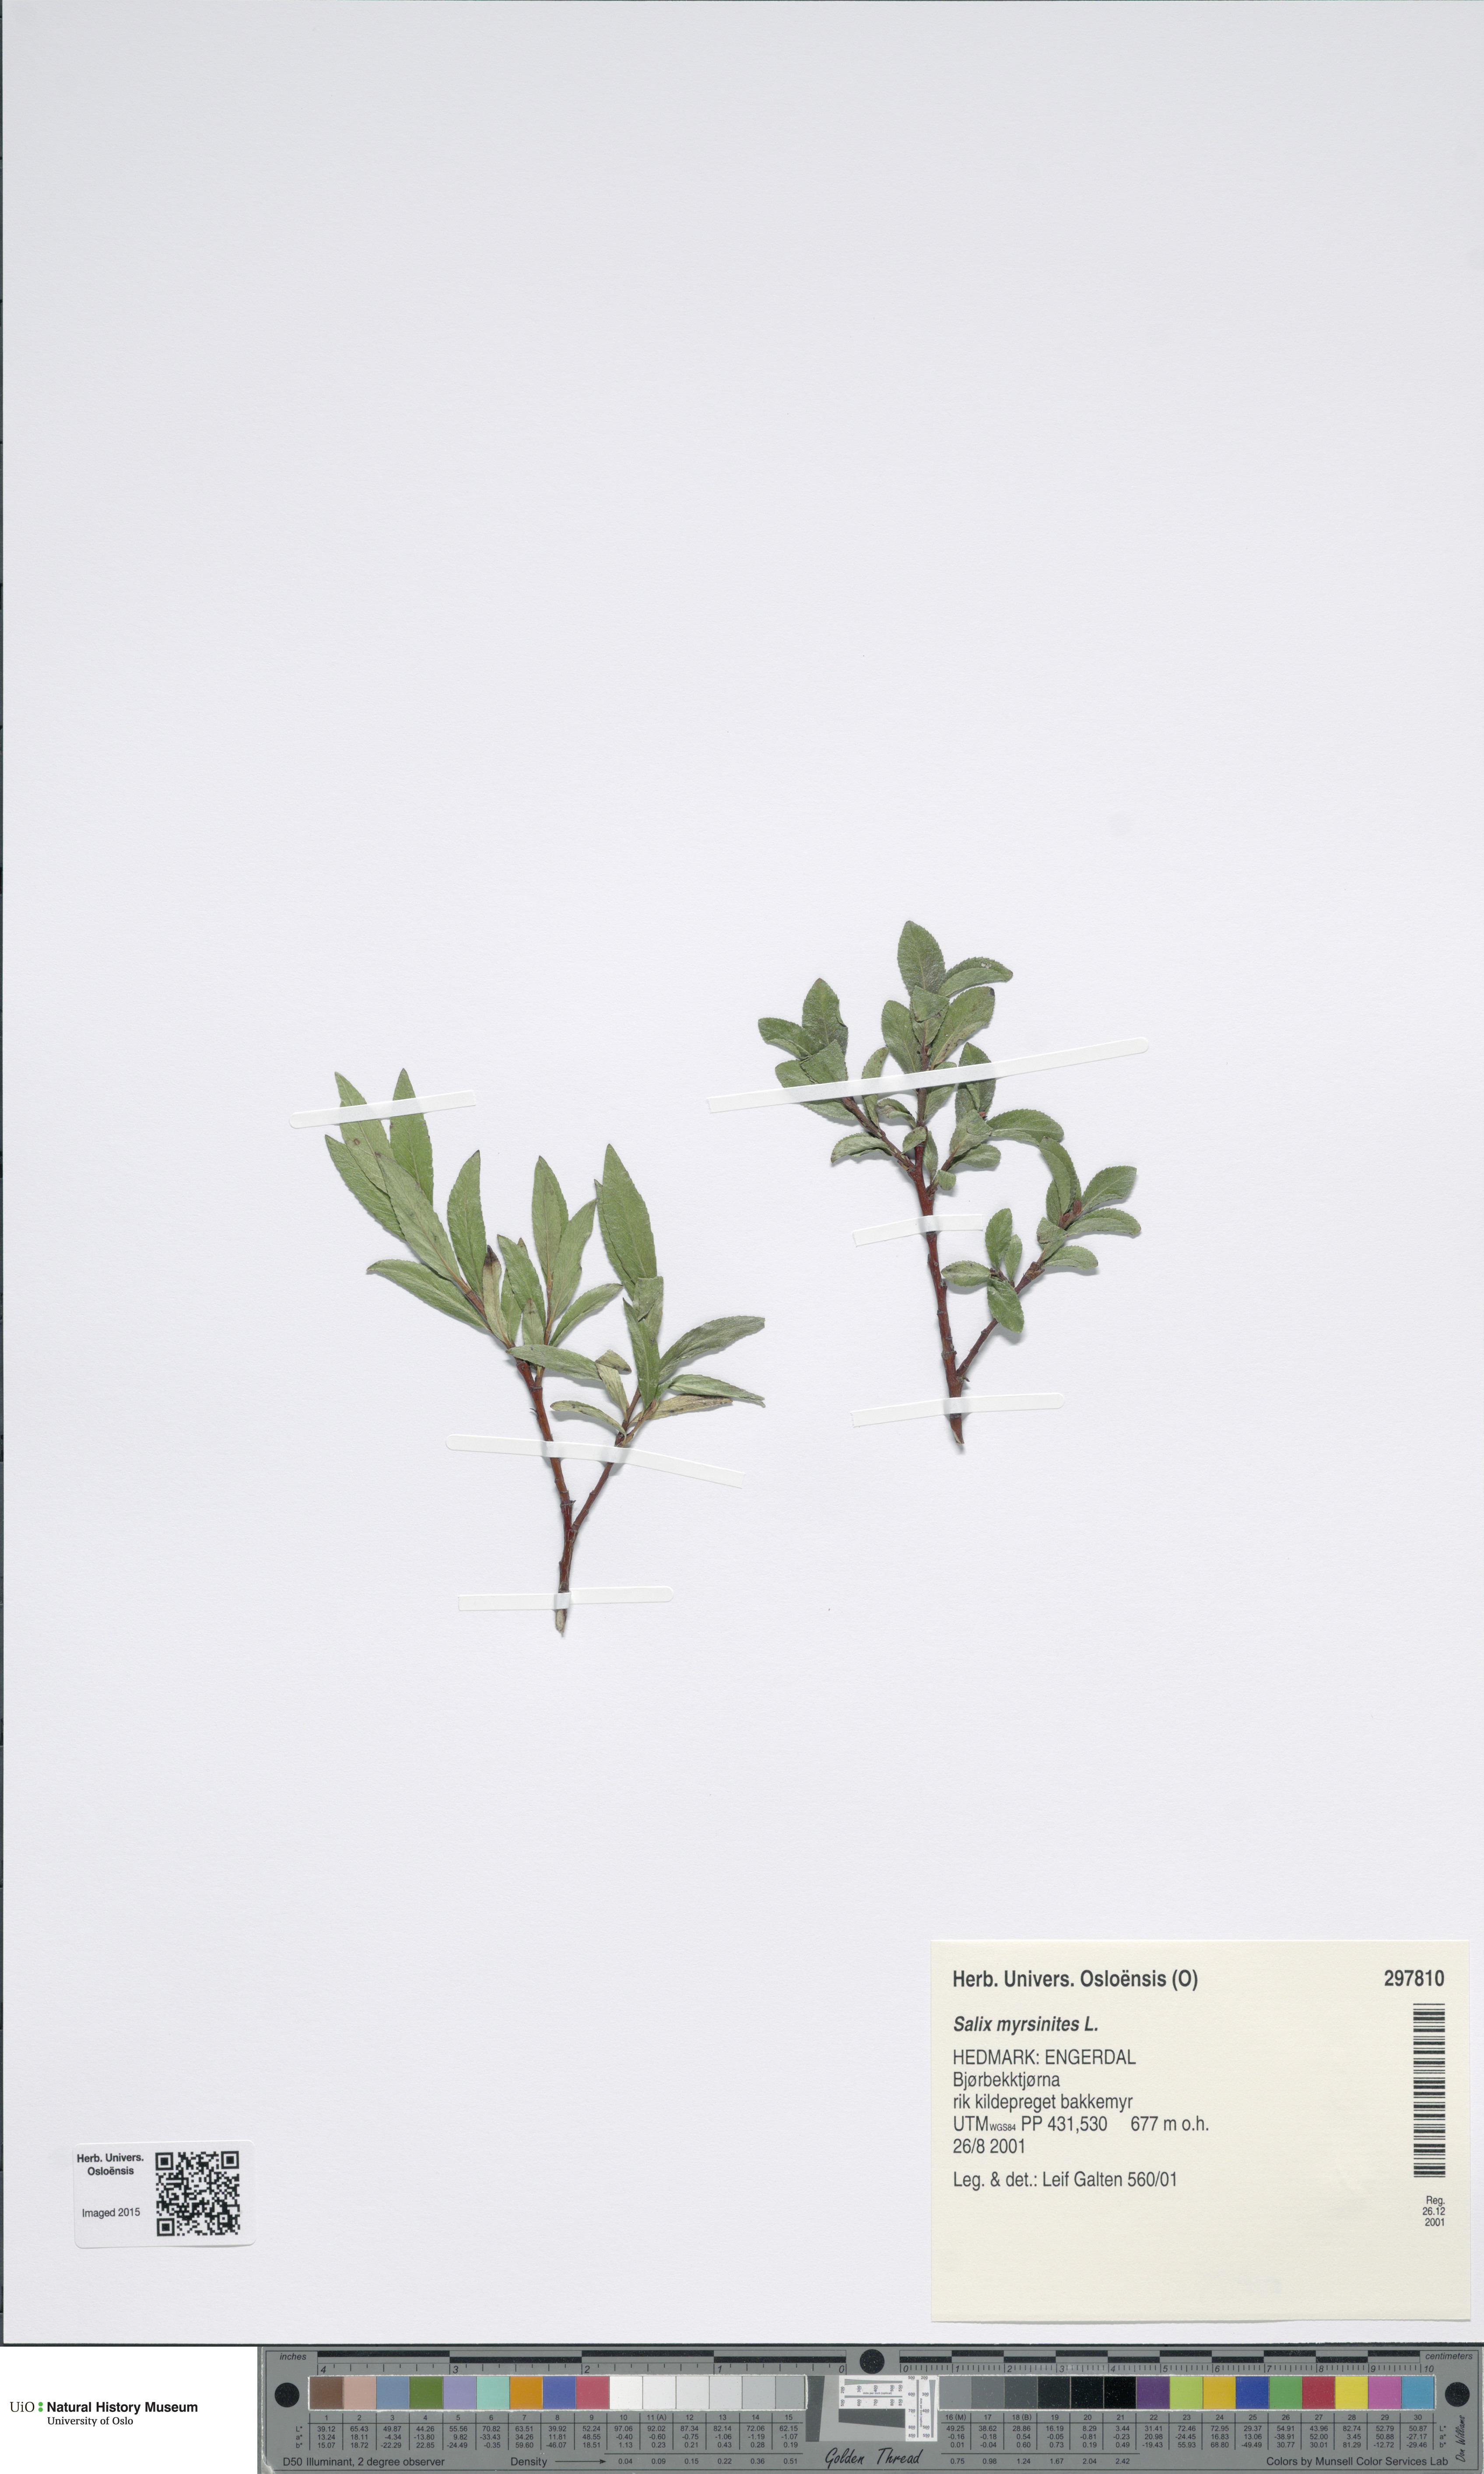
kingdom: Plantae
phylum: Tracheophyta
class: Magnoliopsida
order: Malpighiales
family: Salicaceae
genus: Salix
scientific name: Salix myrsinites
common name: Myrtle willow
